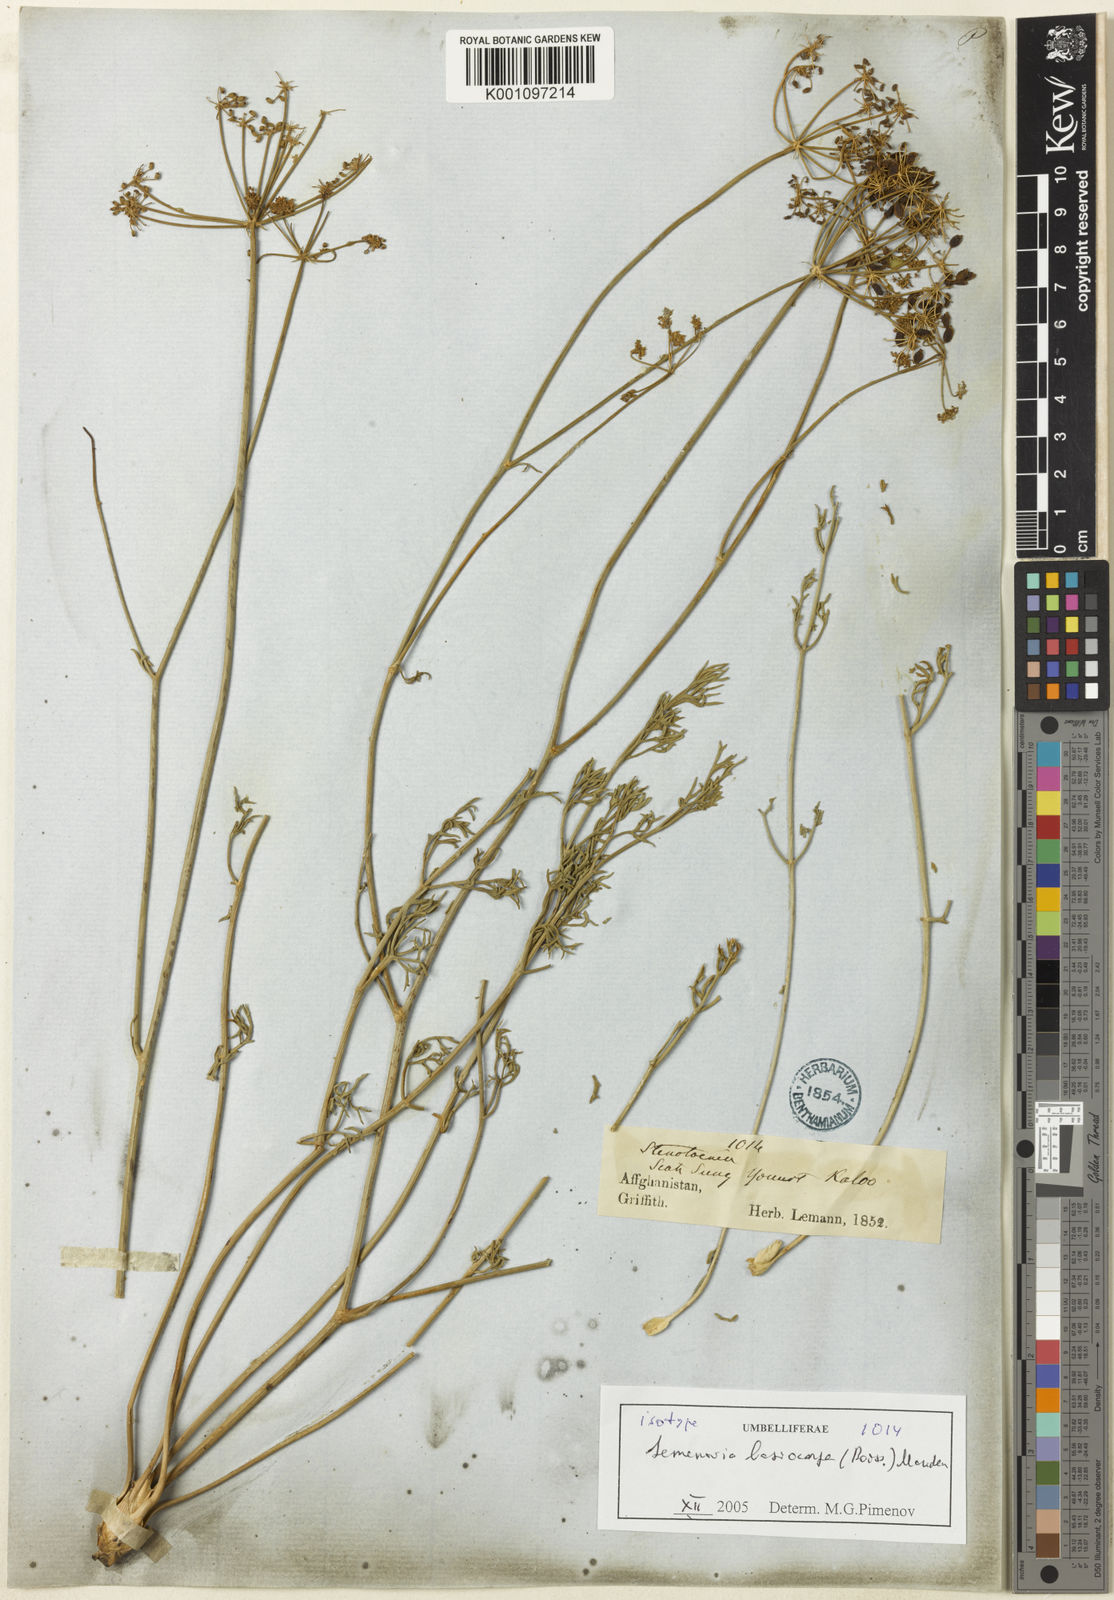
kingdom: Plantae
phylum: Tracheophyta
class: Magnoliopsida
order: Apiales
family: Apiaceae
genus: Semenovia
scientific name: Semenovia lasiocarpa
